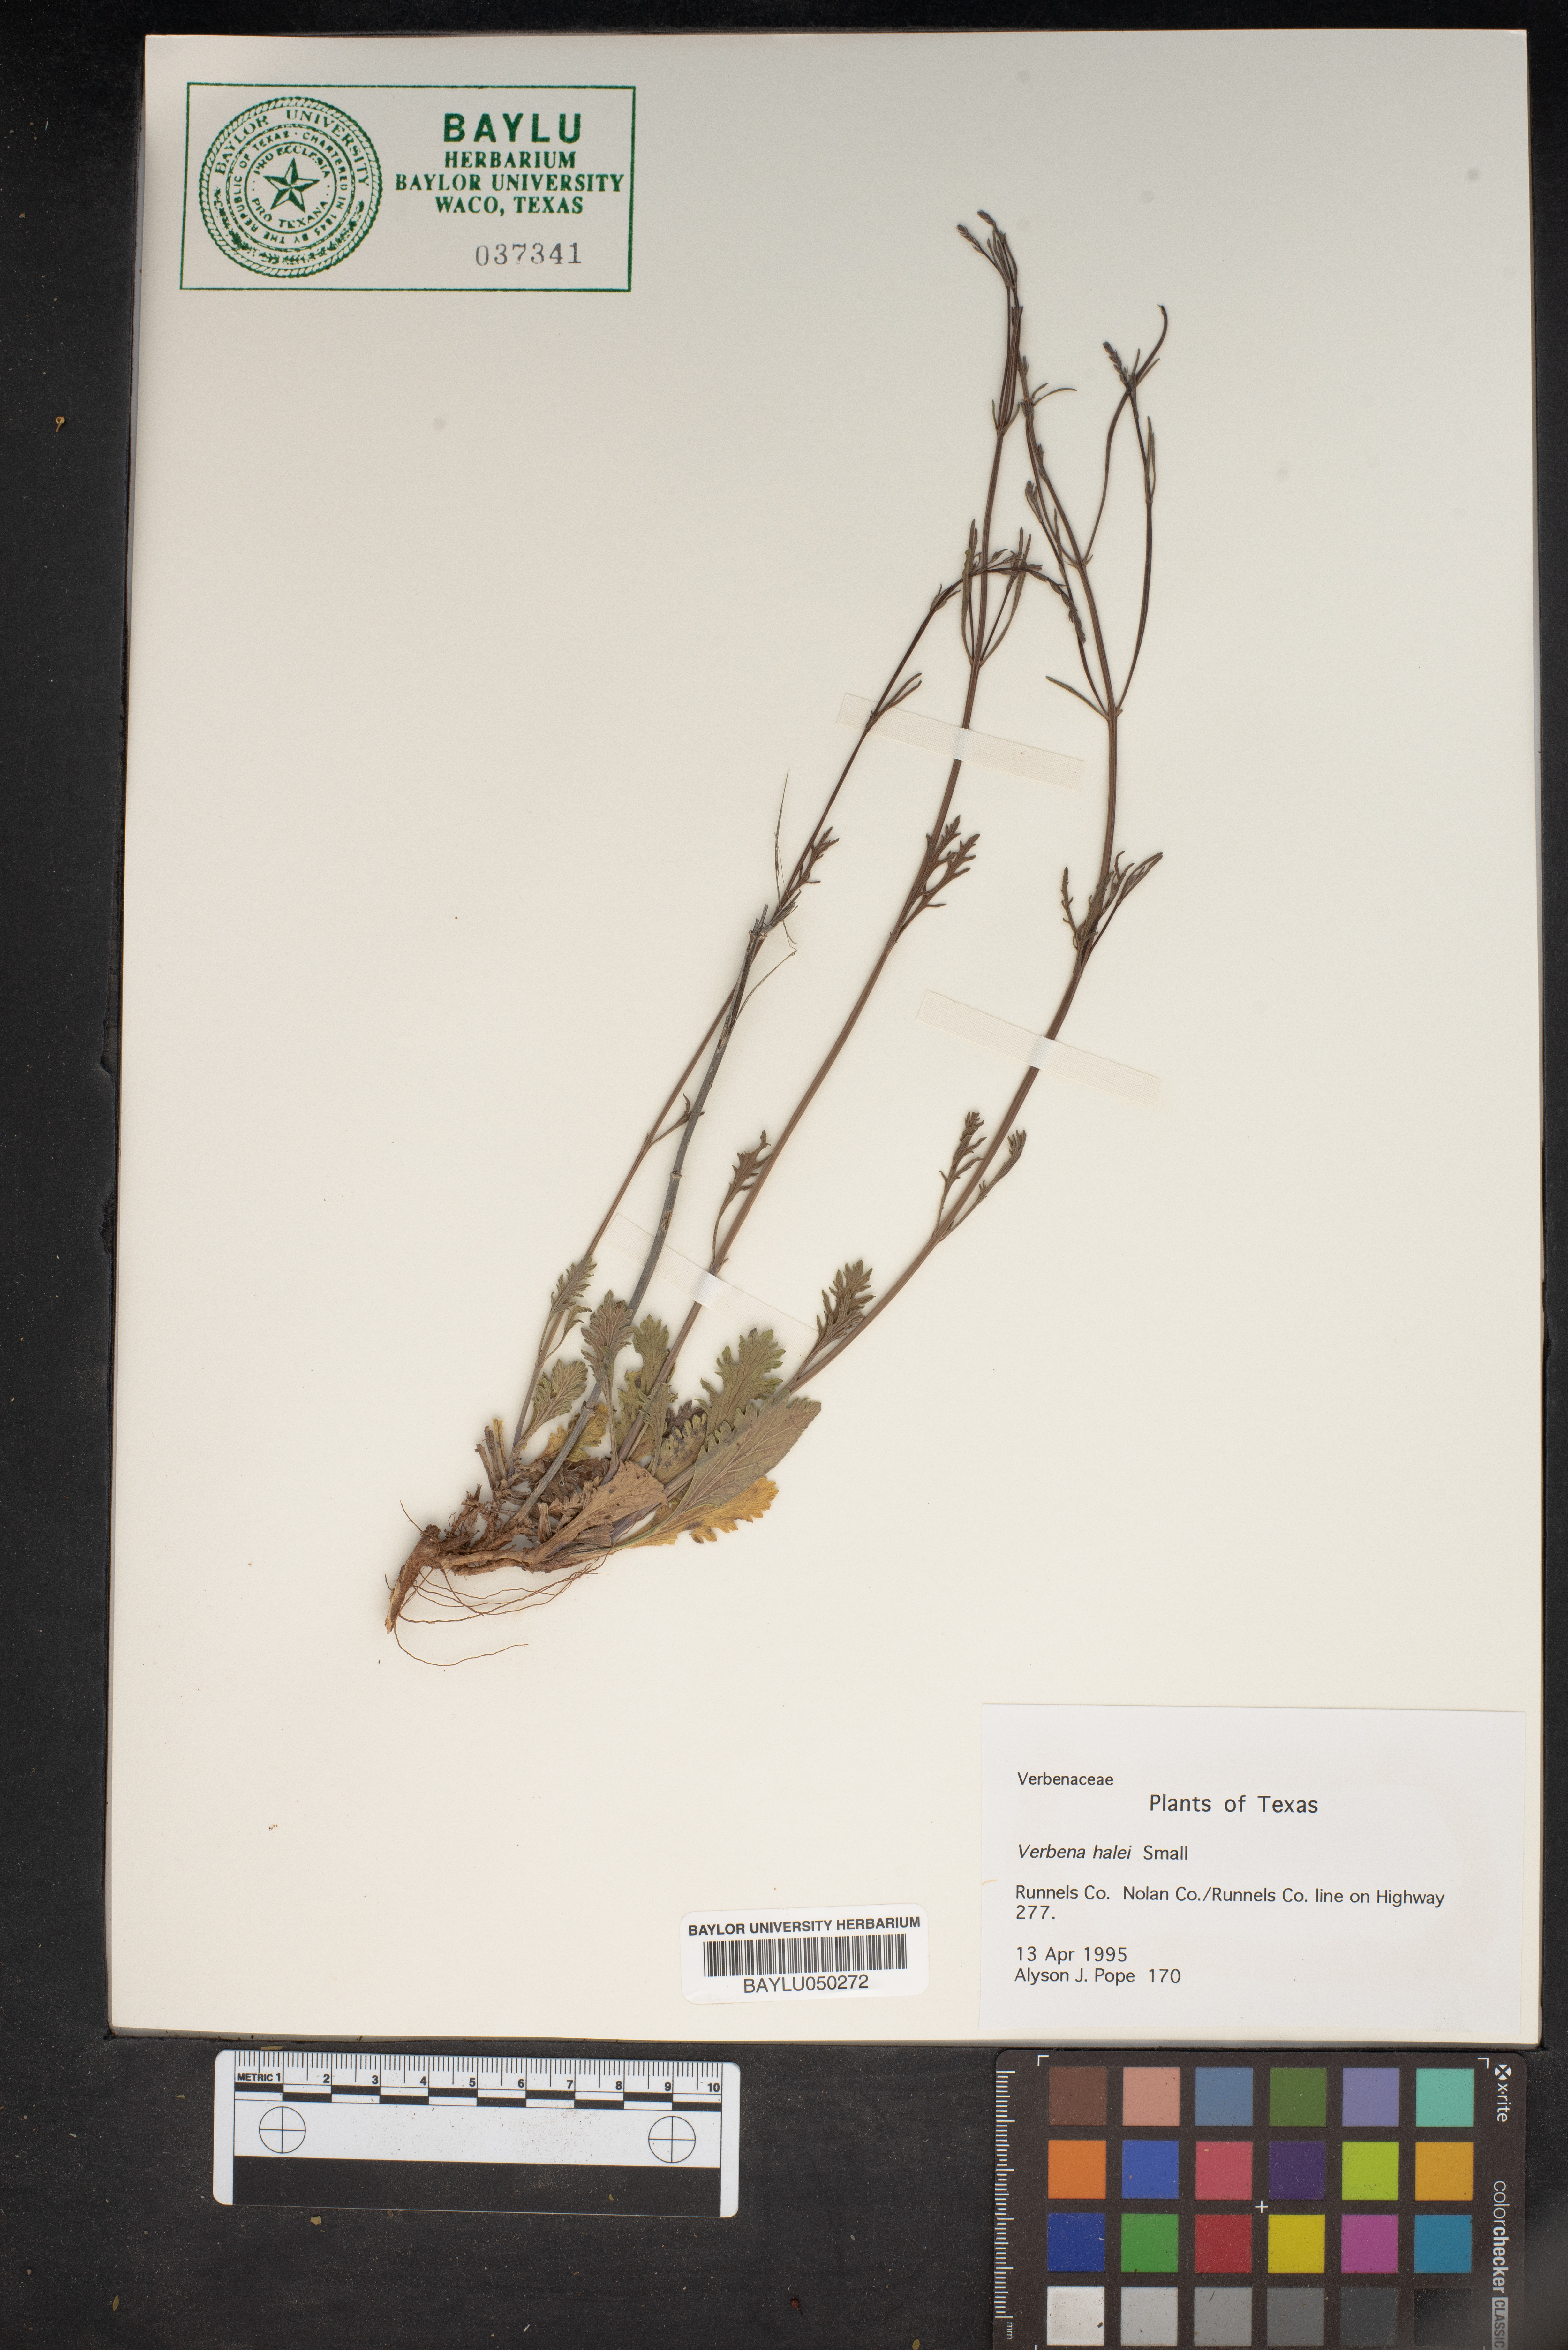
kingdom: Plantae
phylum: Tracheophyta
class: Magnoliopsida
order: Lamiales
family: Verbenaceae
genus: Verbena
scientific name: Verbena halei
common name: Texas vervain
